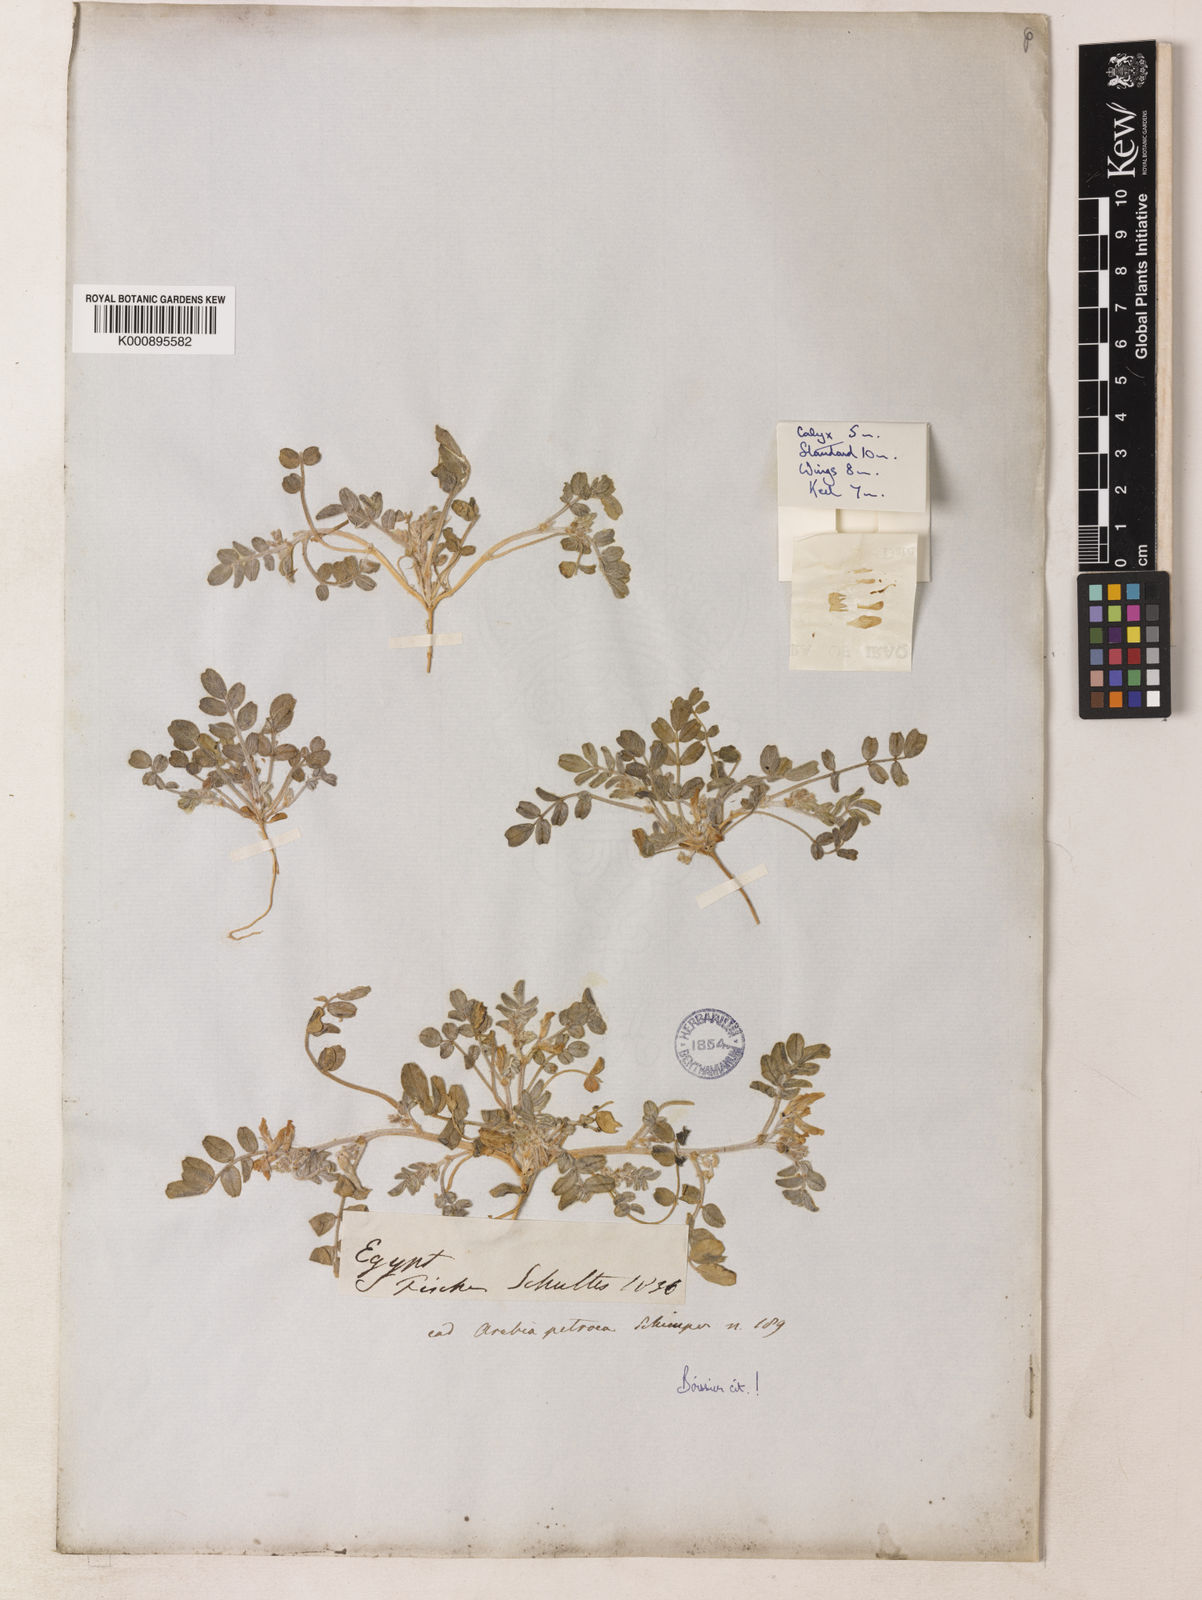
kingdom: Plantae
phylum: Tracheophyta
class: Magnoliopsida
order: Fabales
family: Fabaceae
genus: Astragalus
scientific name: Astragalus annularis
